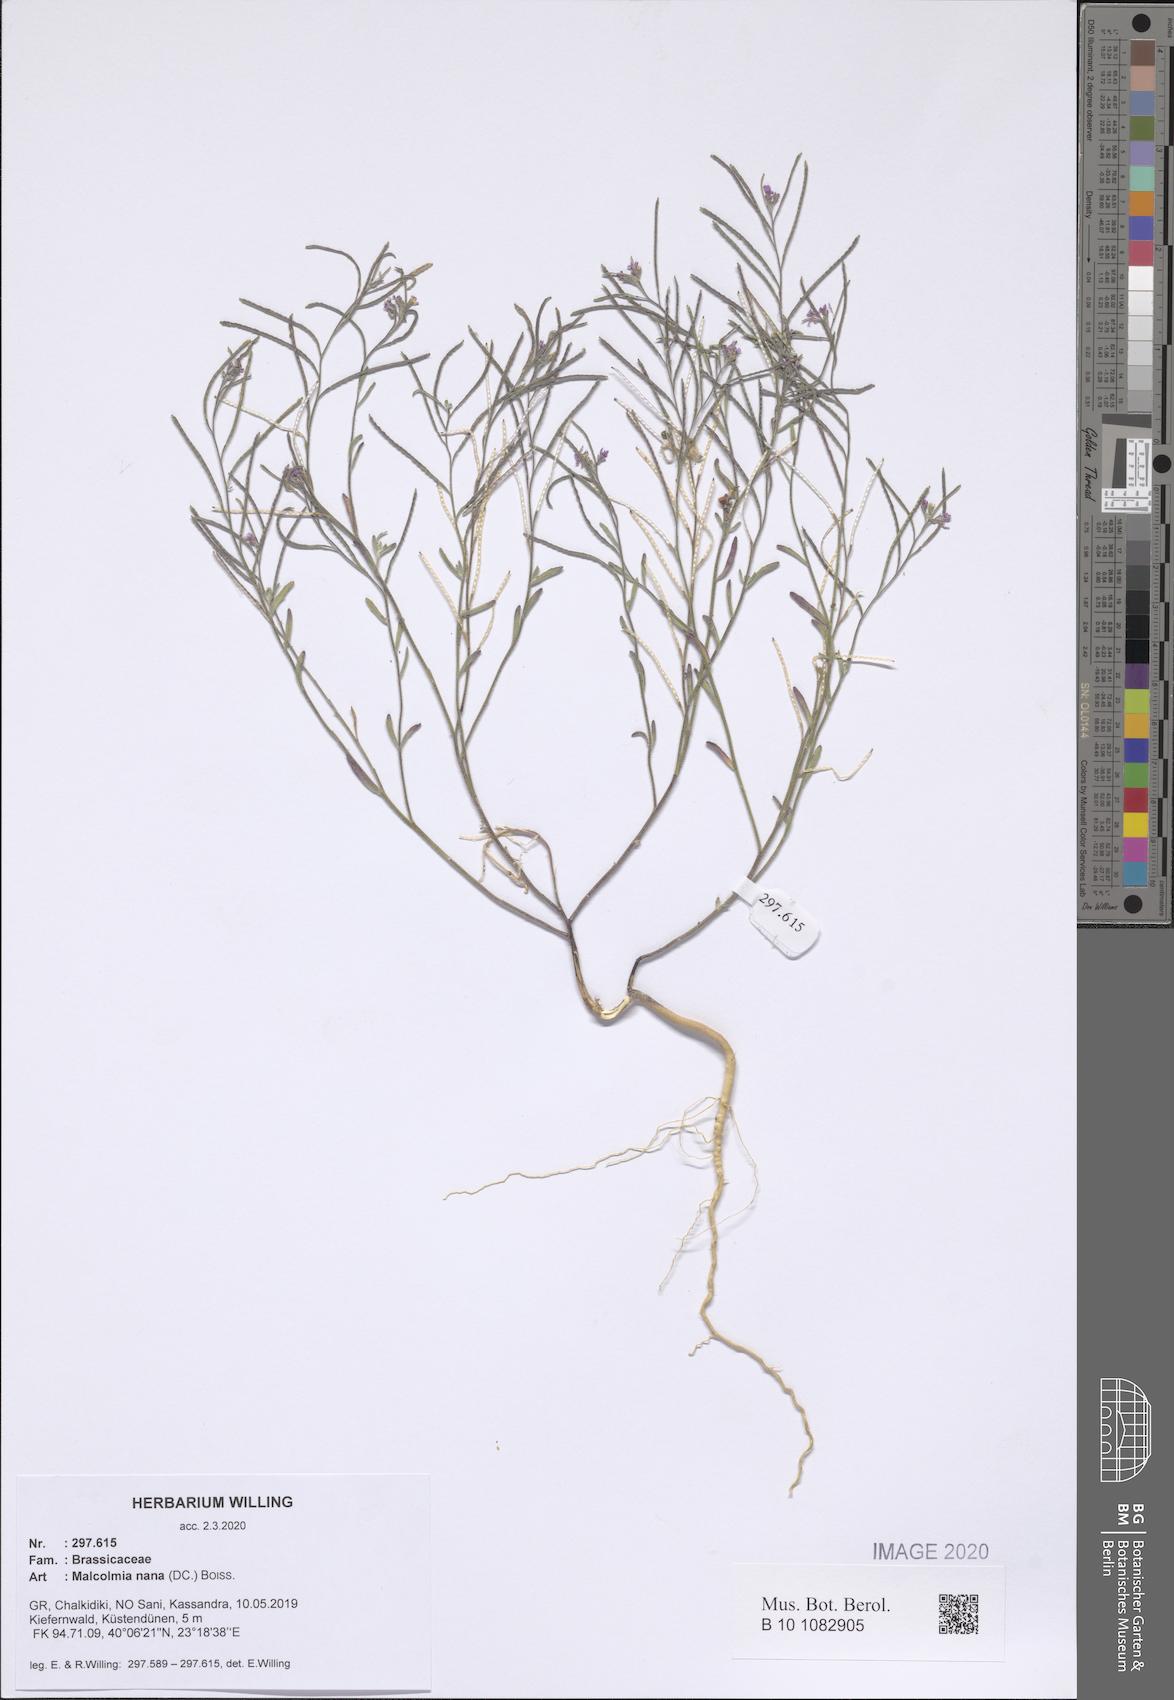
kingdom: Plantae
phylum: Tracheophyta
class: Magnoliopsida
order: Brassicales
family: Brassicaceae
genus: Maresia
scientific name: Maresia nana
